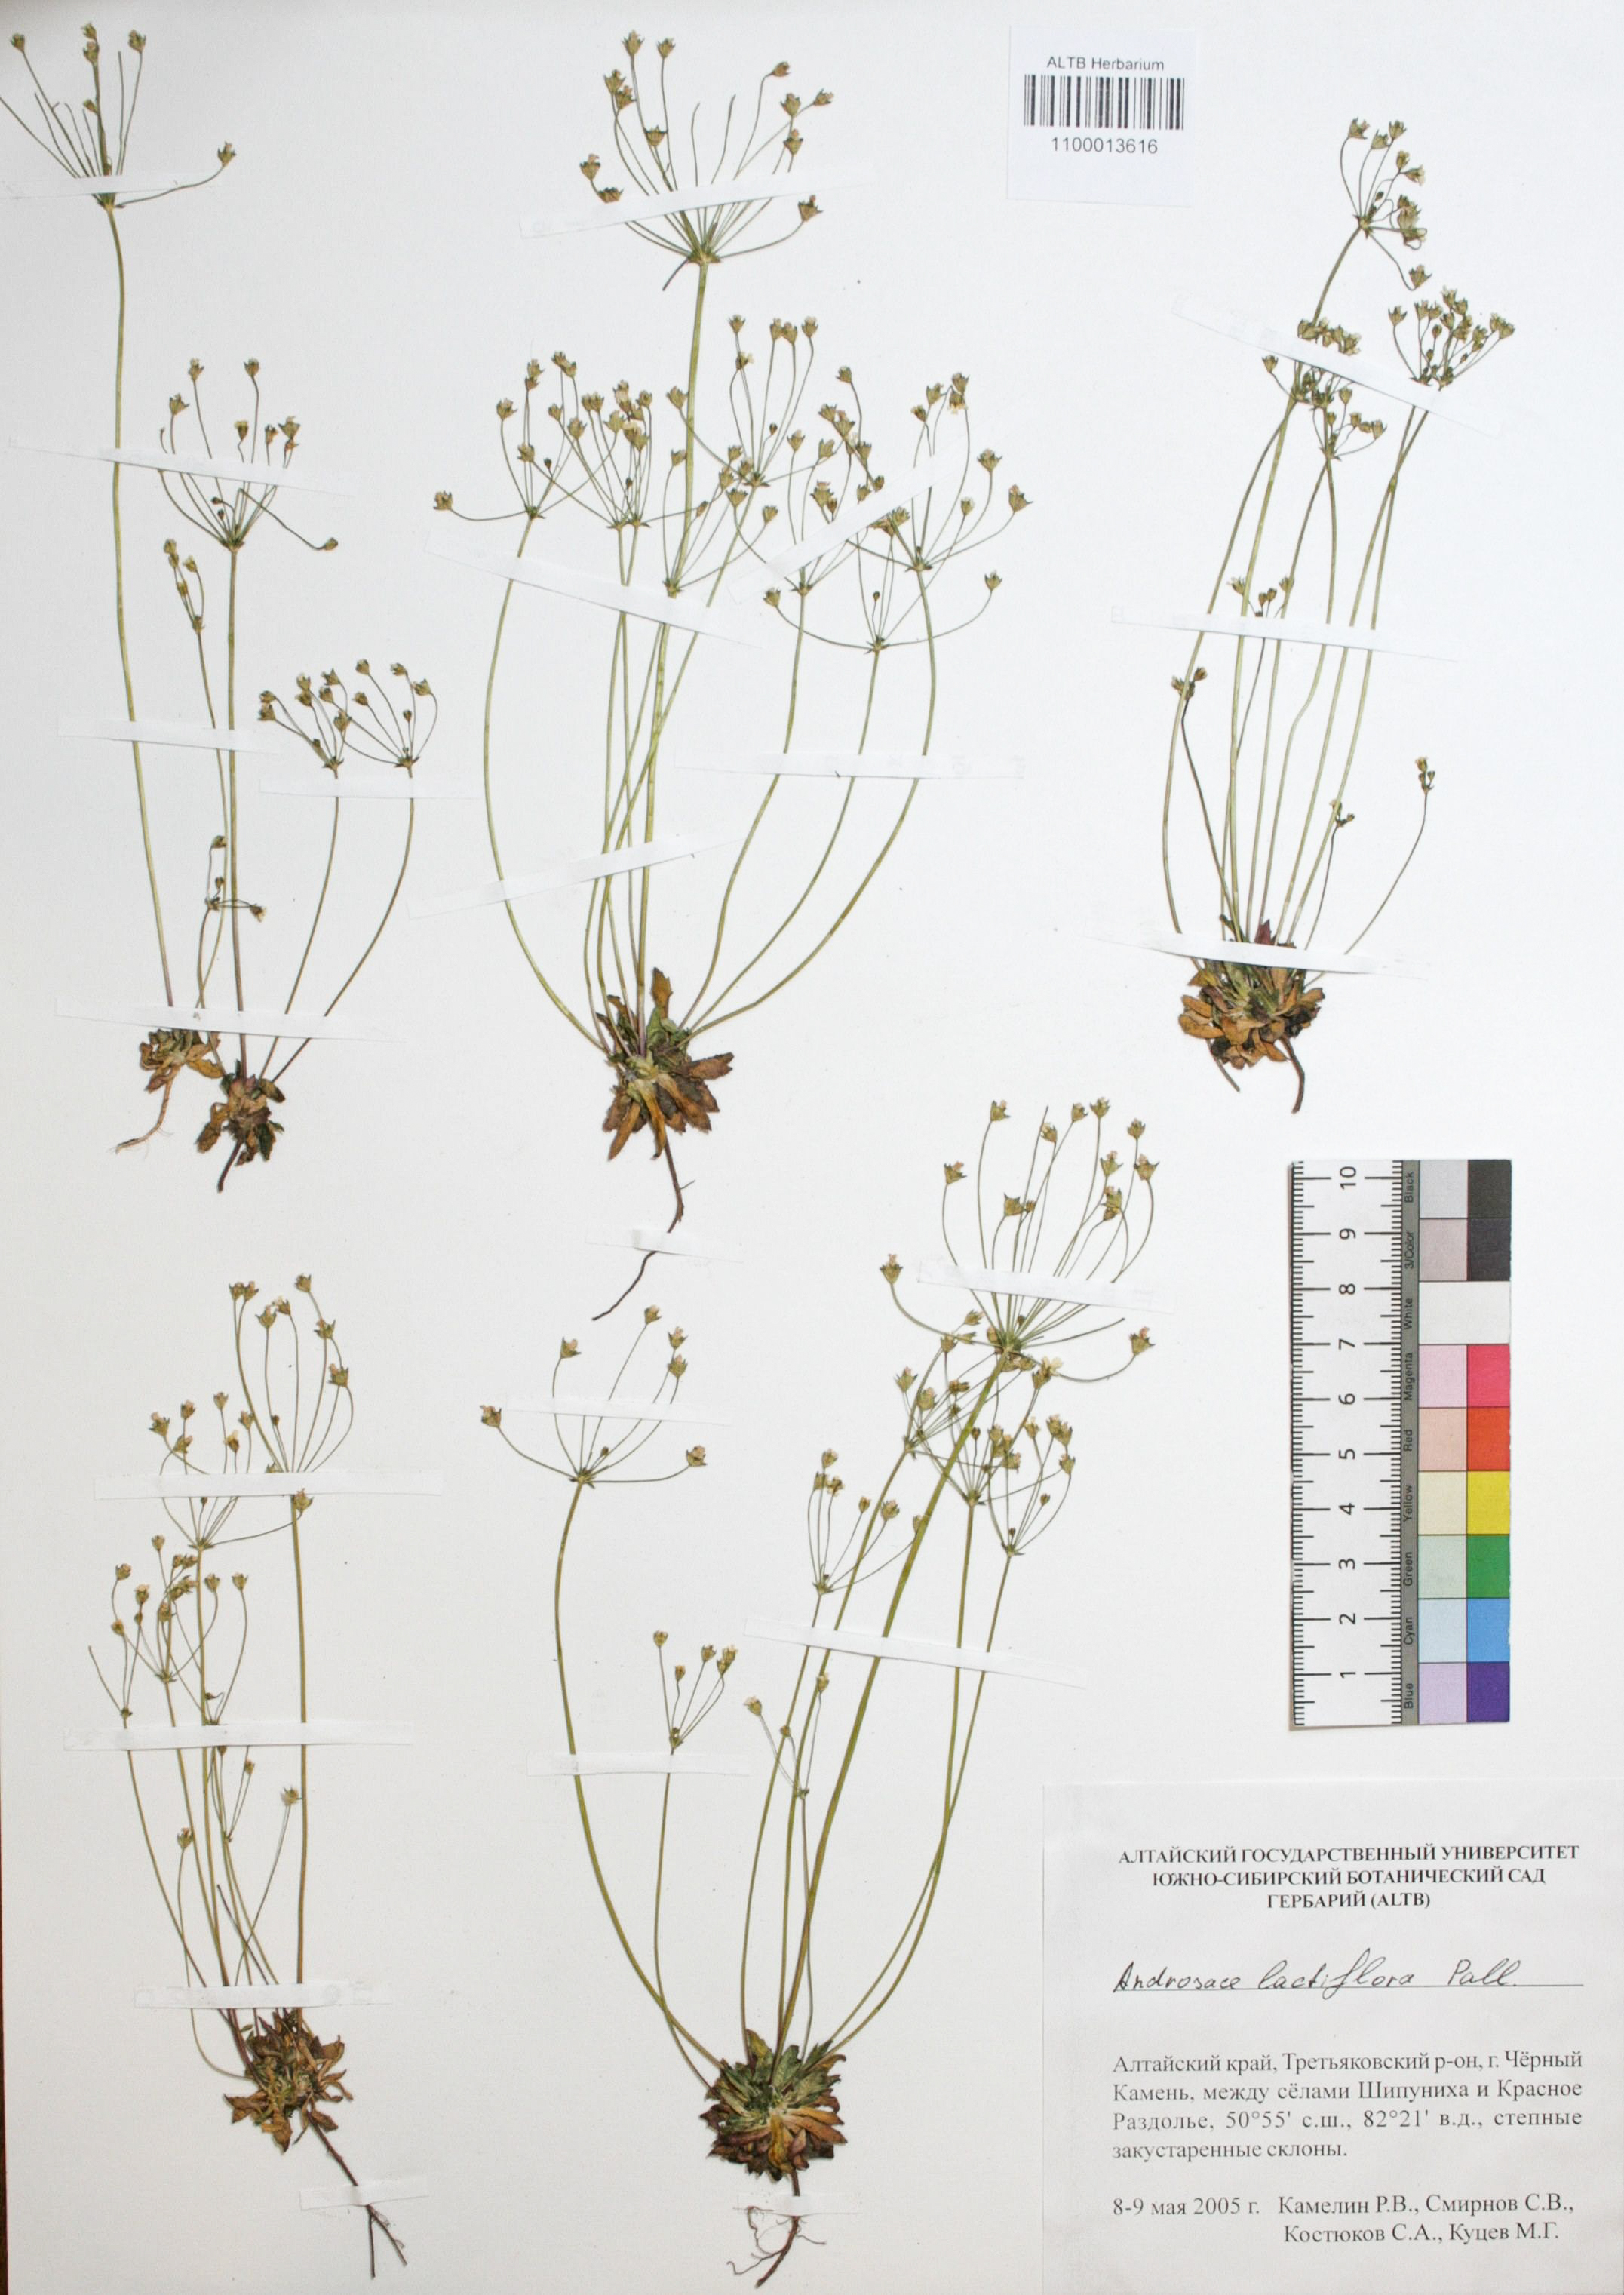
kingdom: Plantae
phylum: Tracheophyta
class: Magnoliopsida
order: Ericales
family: Primulaceae
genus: Androsace
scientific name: Androsace lactiflora
